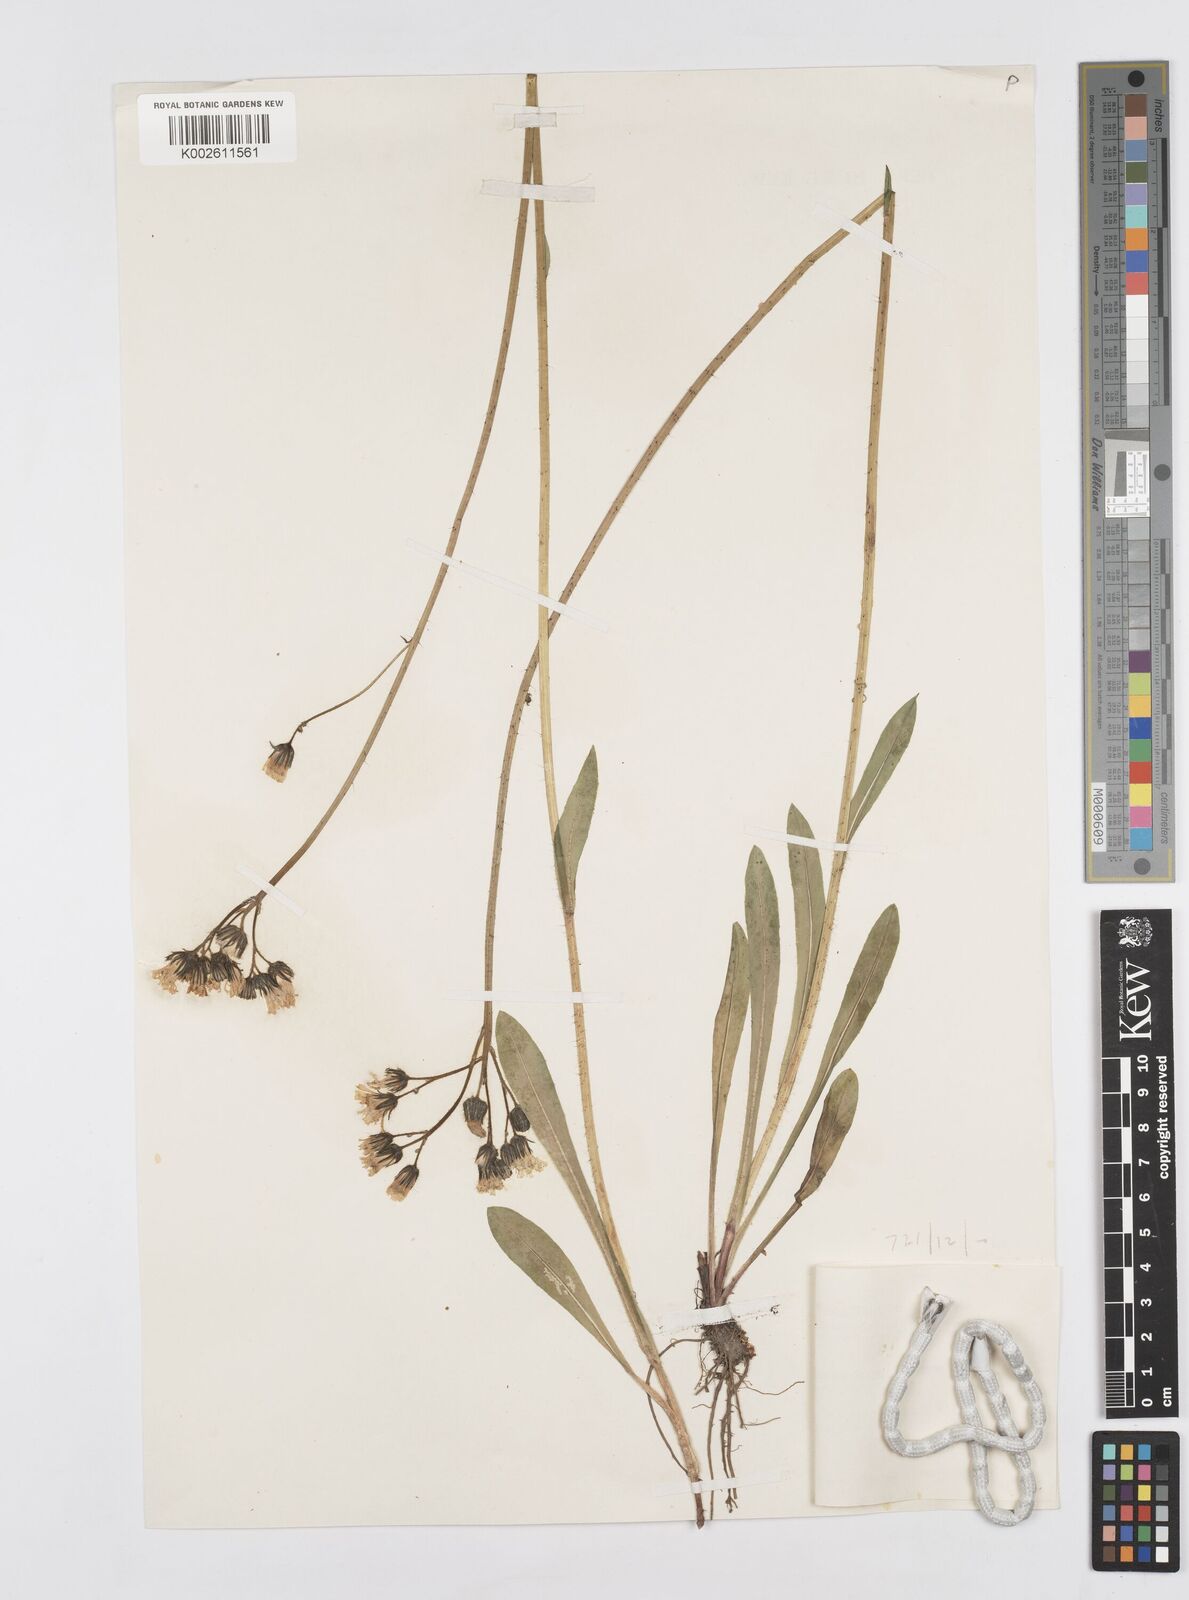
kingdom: Plantae
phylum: Tracheophyta
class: Magnoliopsida
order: Asterales
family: Asteraceae
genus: Pilosella
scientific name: Pilosella erythrochrista
